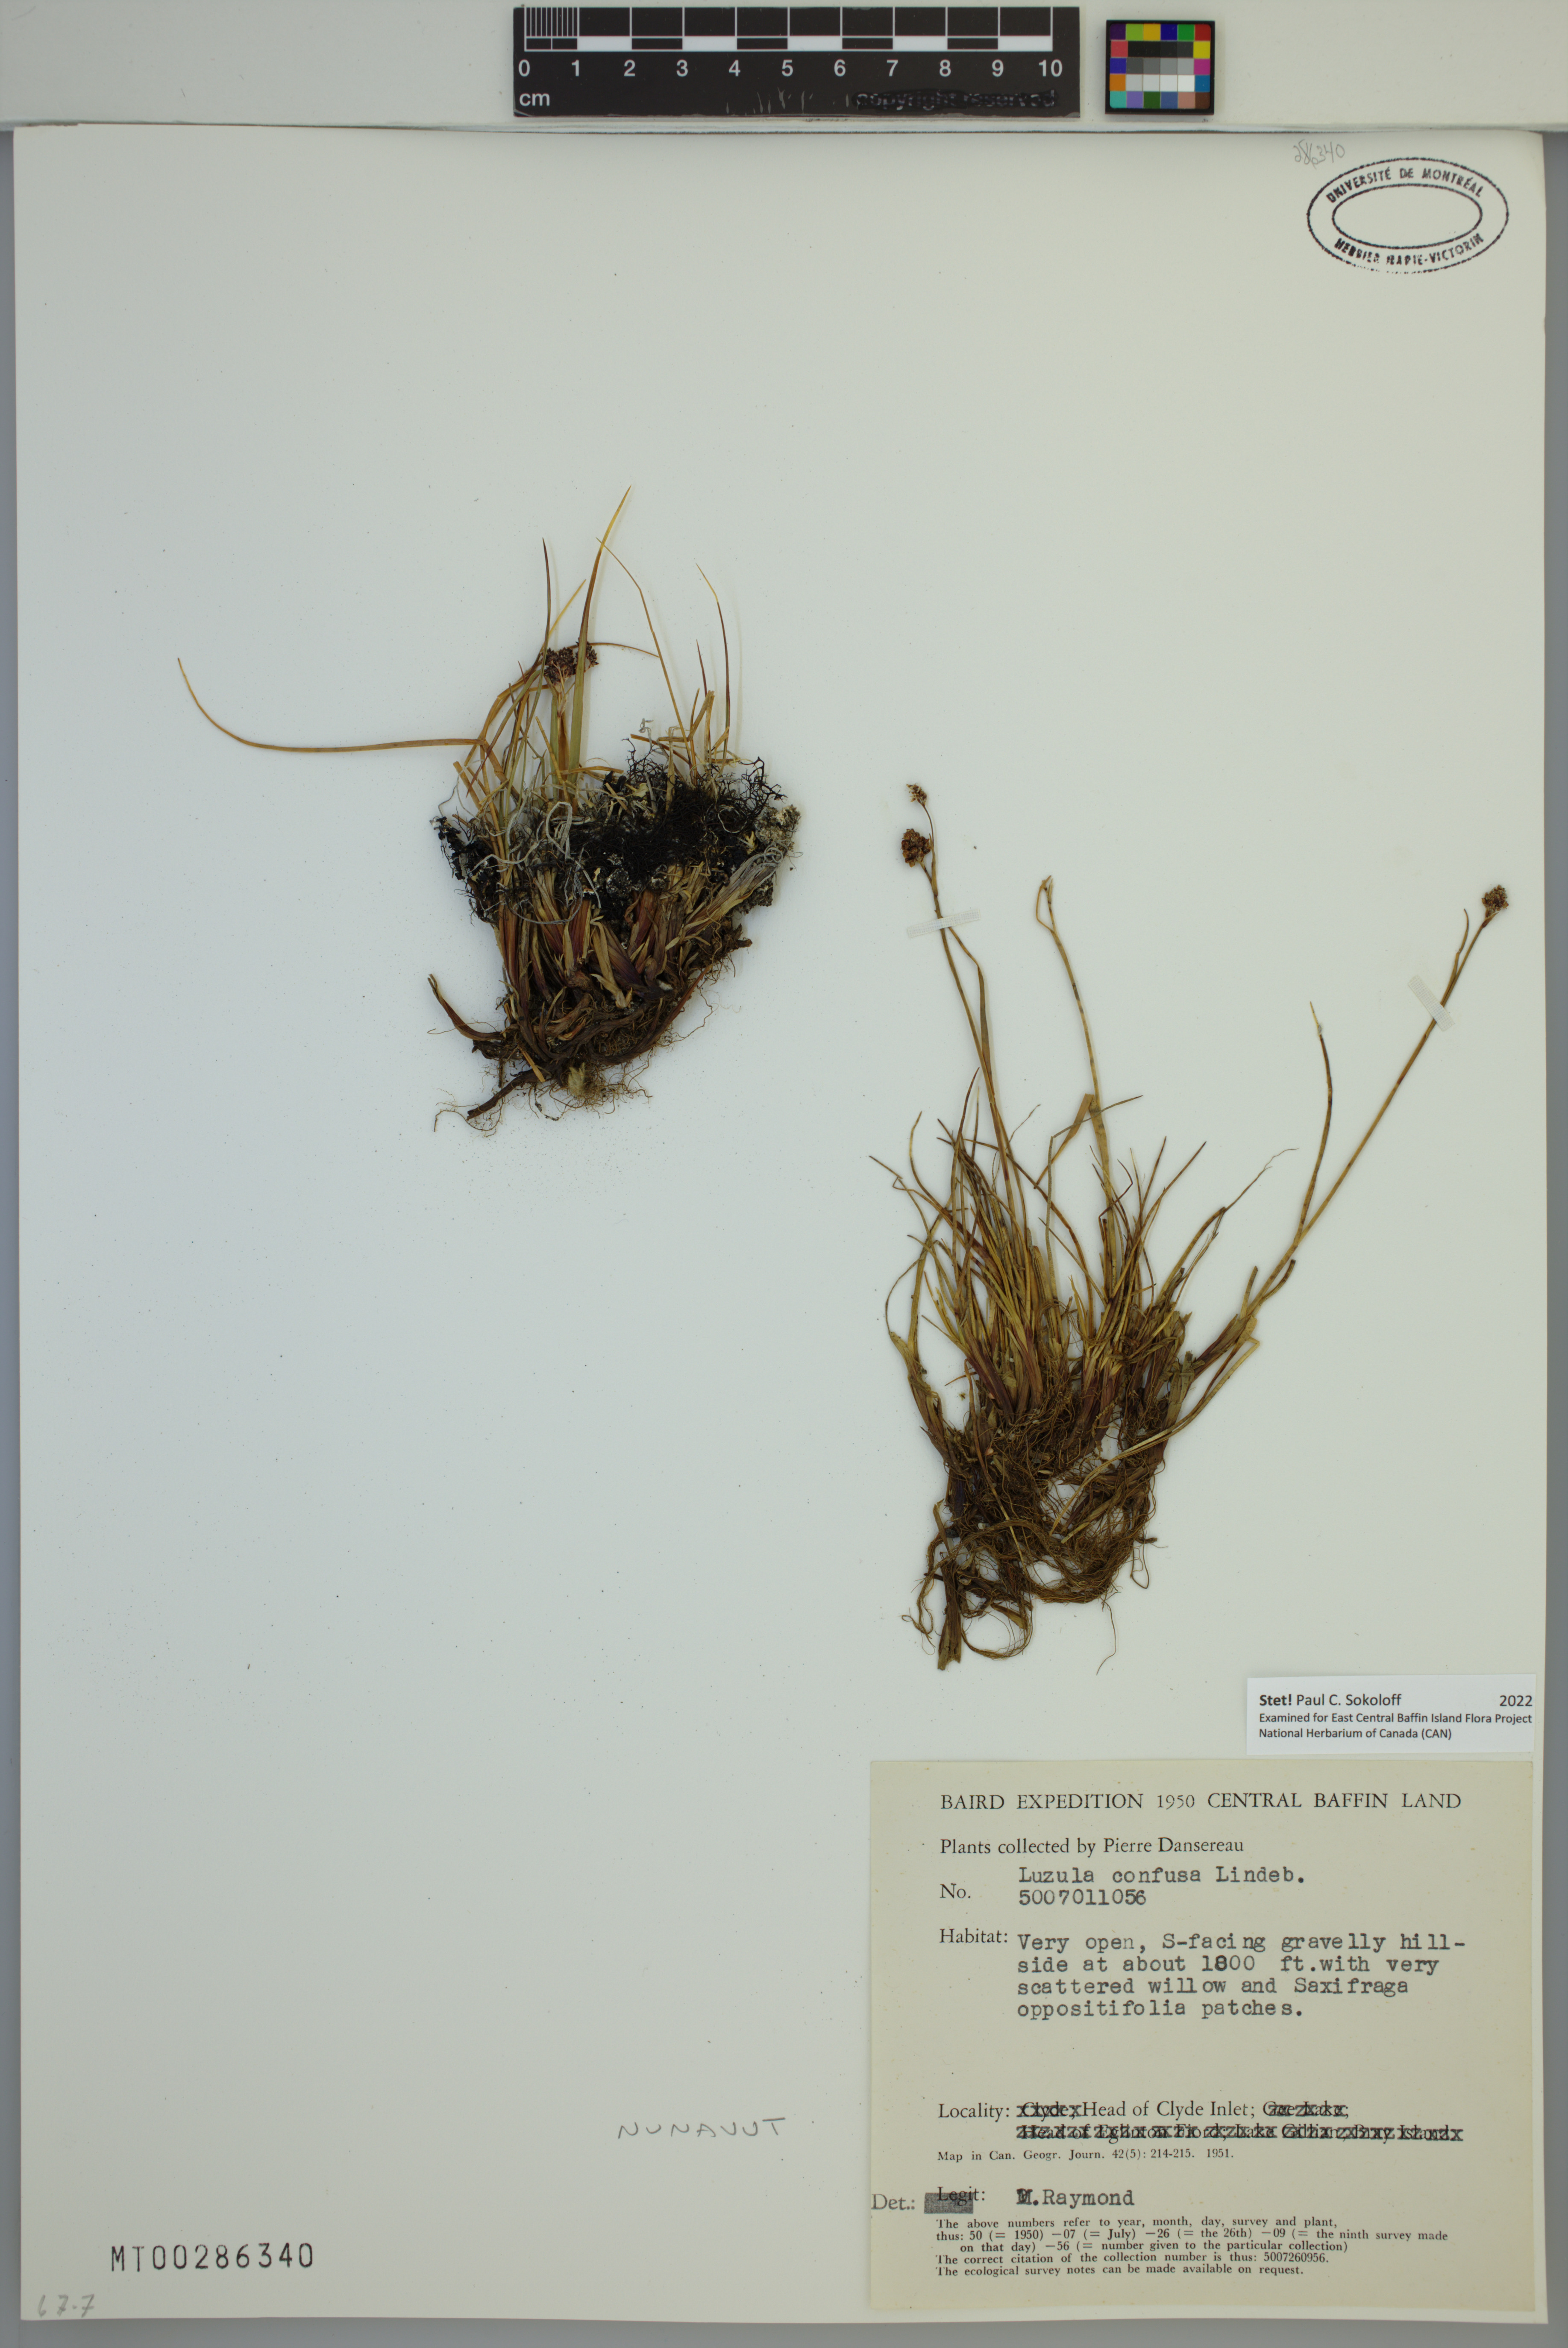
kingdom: Plantae
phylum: Tracheophyta
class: Liliopsida
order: Poales
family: Juncaceae
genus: Luzula
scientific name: Luzula confusa
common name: Northern wood rush
